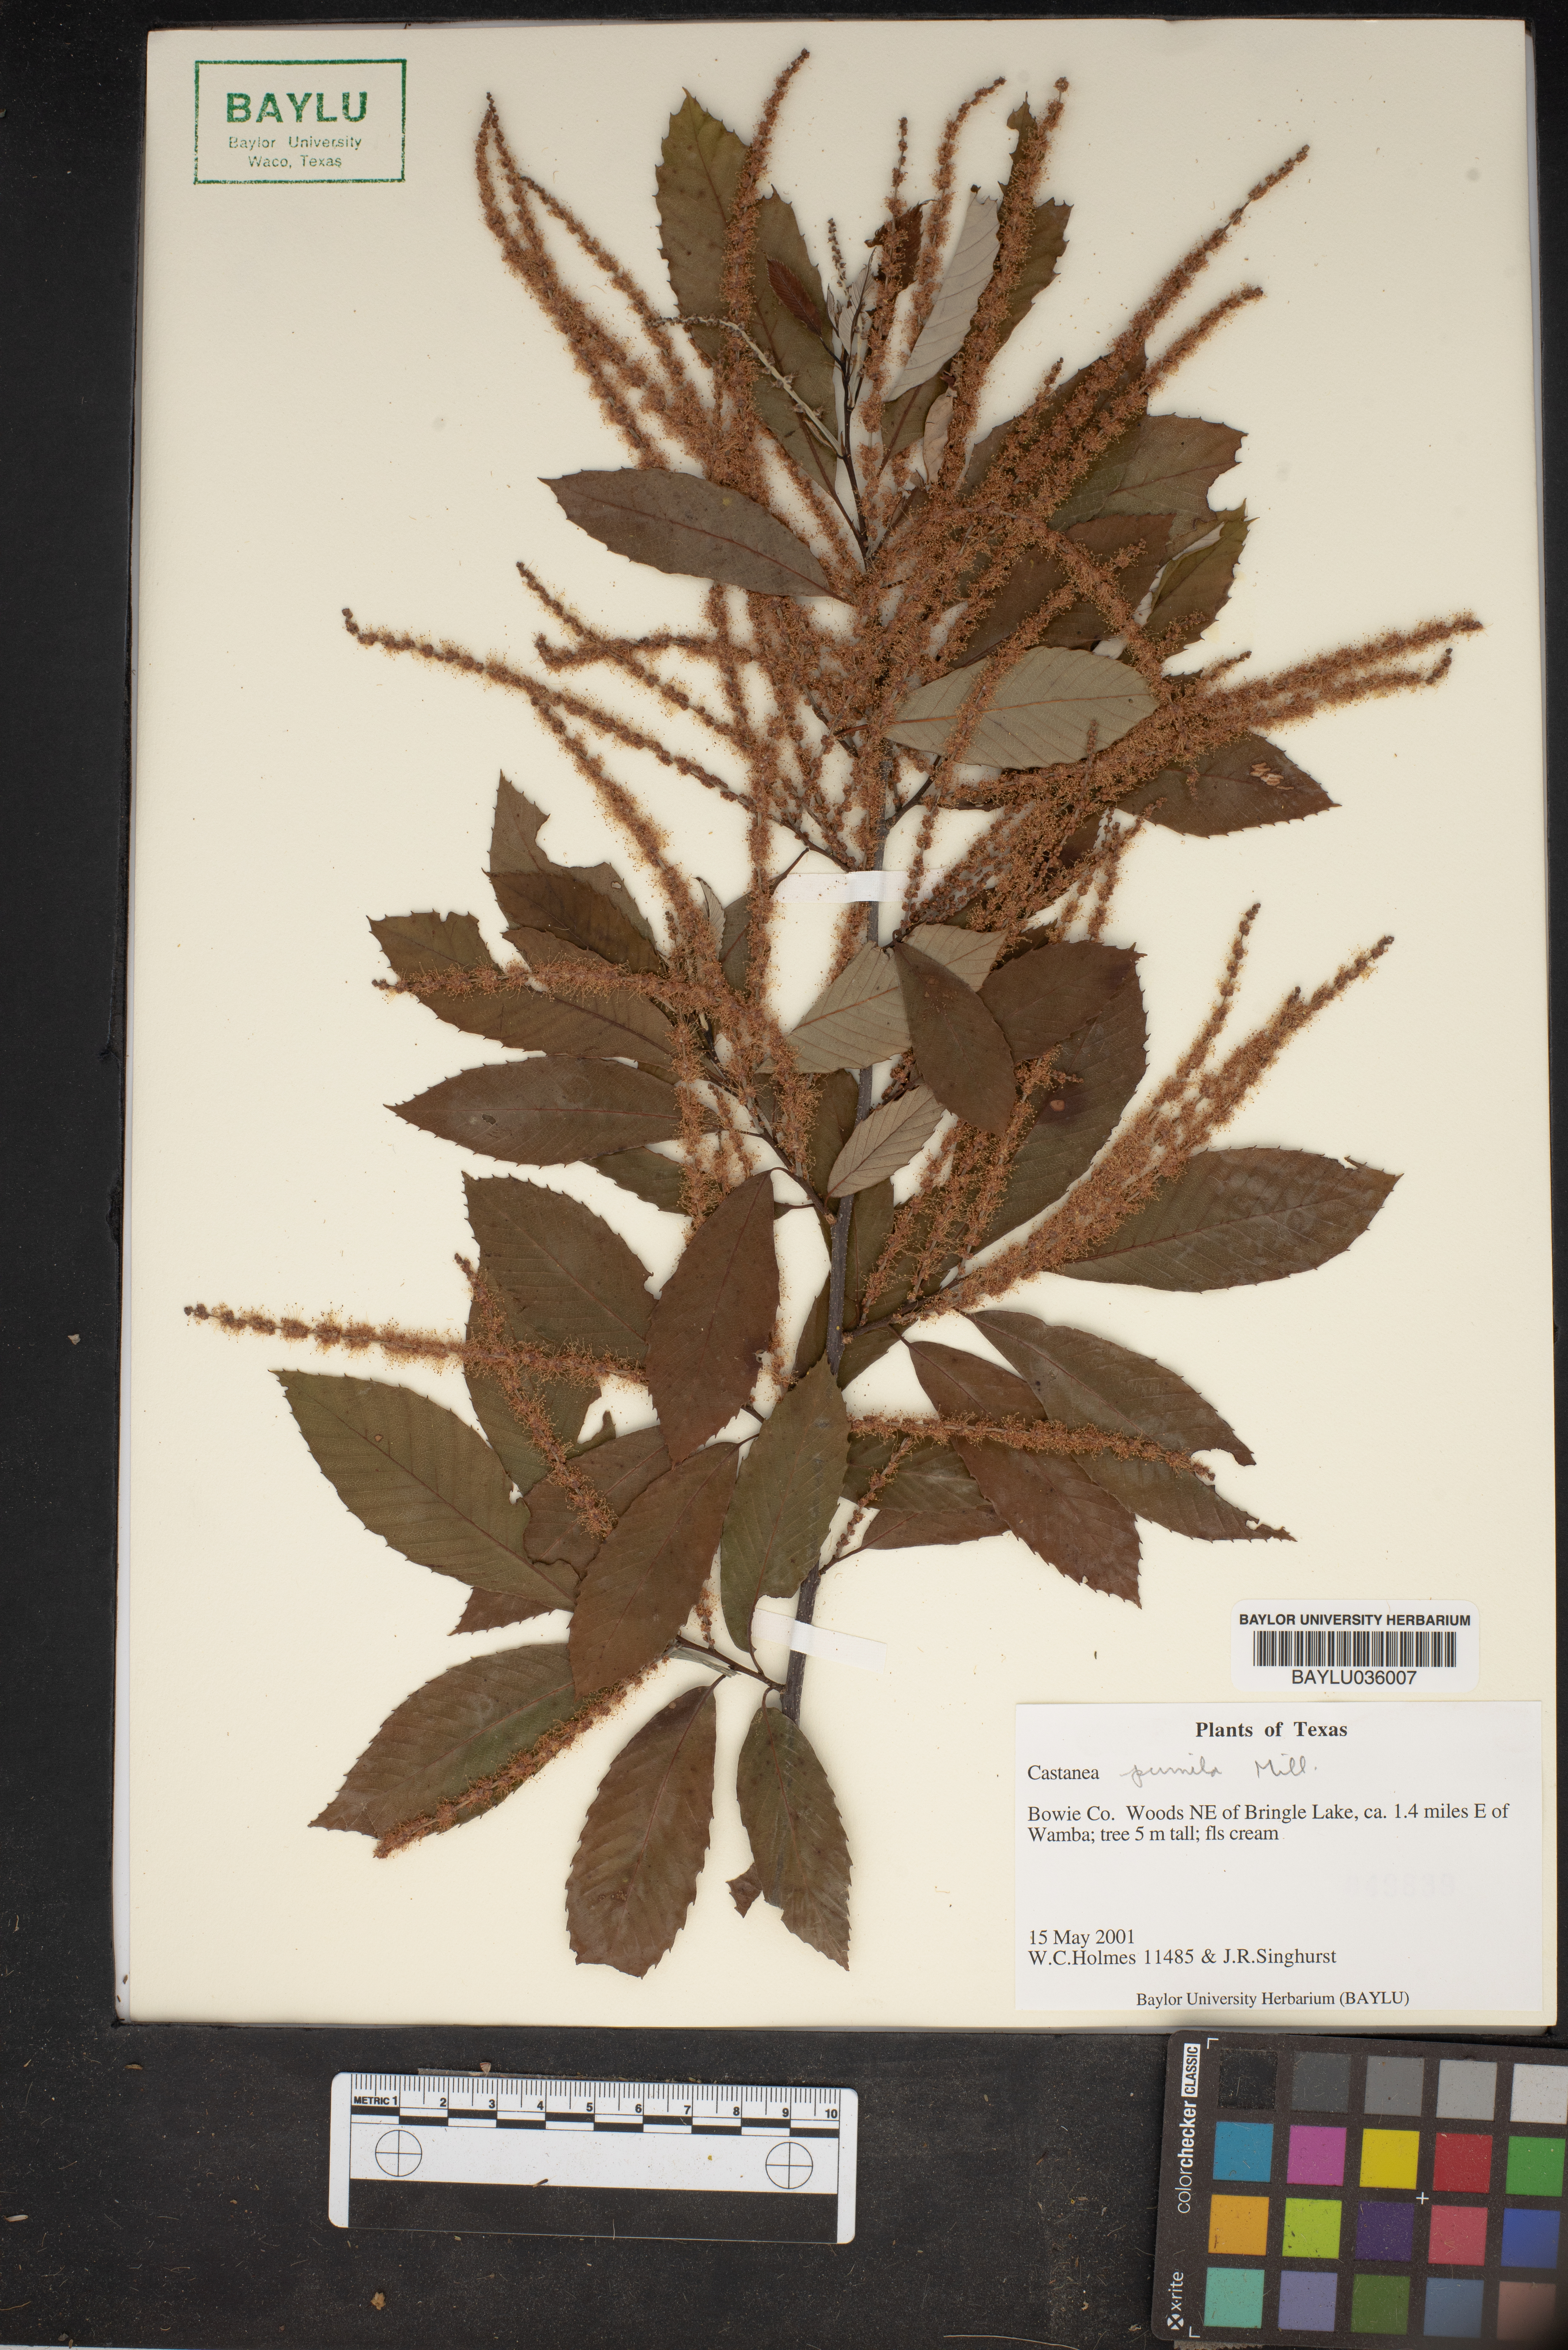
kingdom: Plantae
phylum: Tracheophyta
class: Magnoliopsida
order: Fagales
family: Fagaceae
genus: Castanea
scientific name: Castanea pumila
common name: Chinkapin
